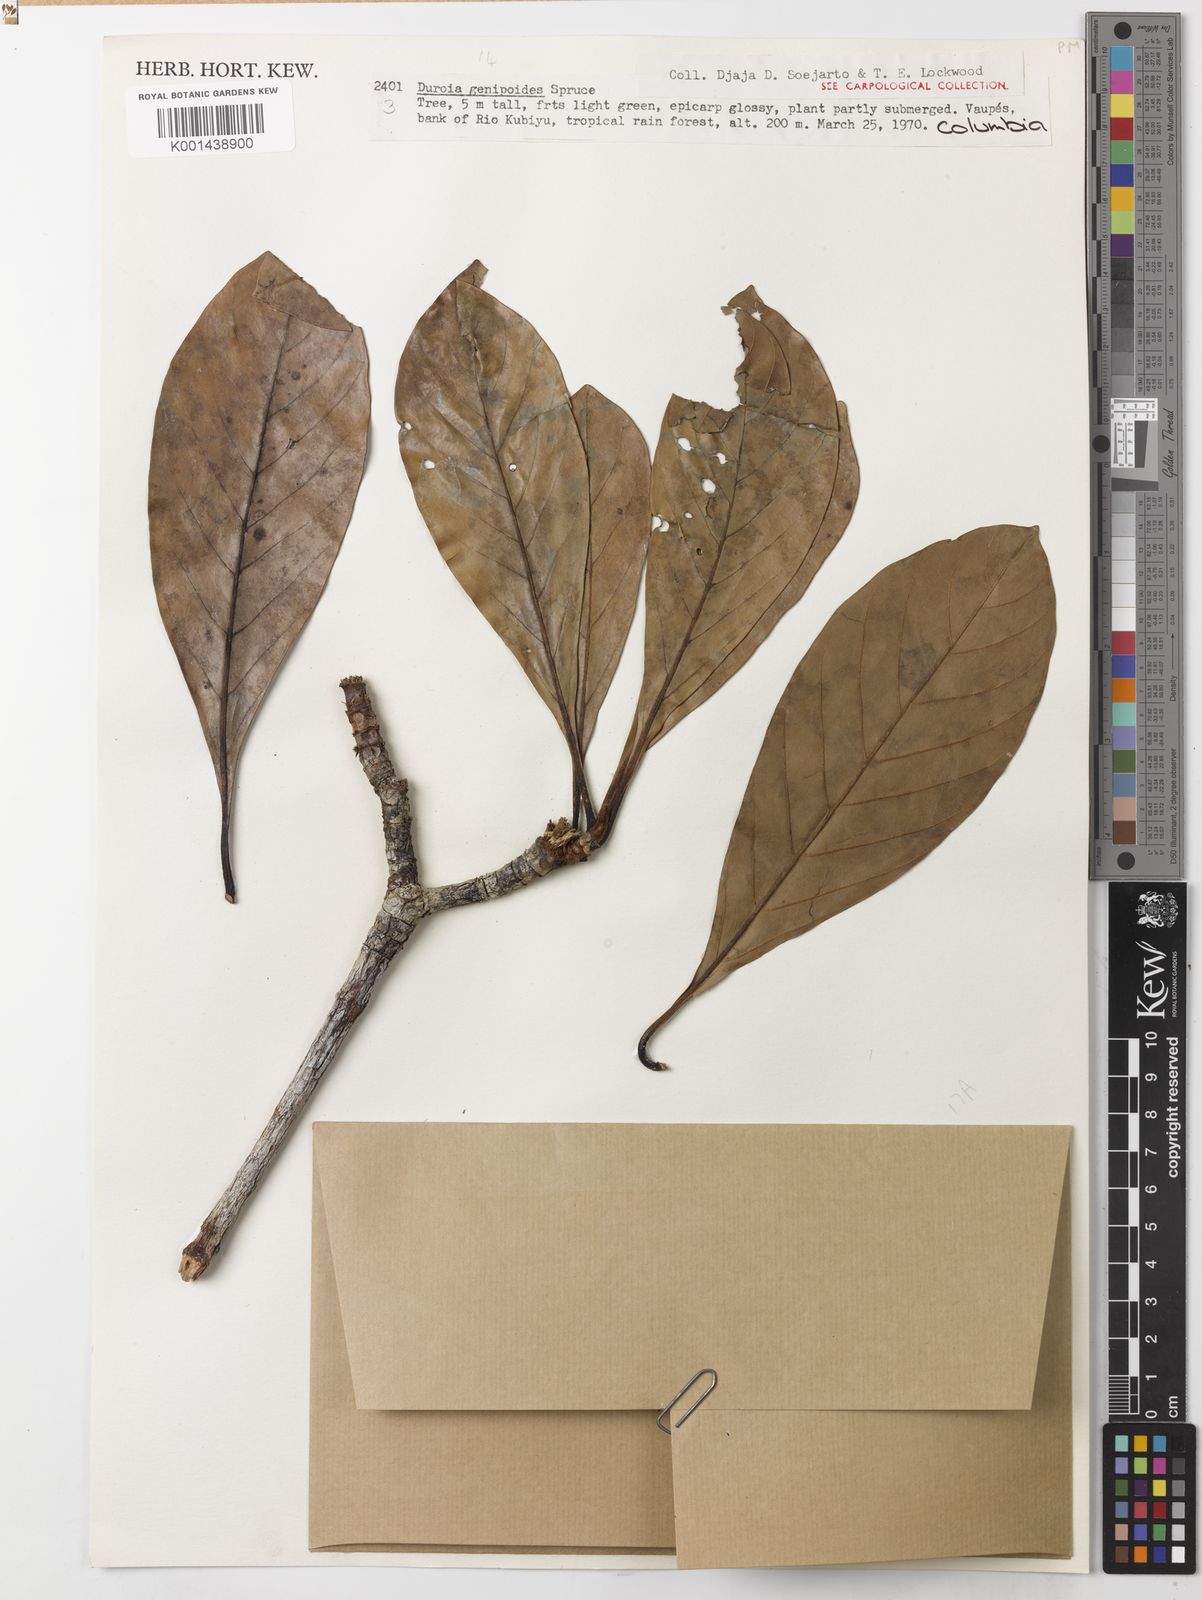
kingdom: Plantae
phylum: Tracheophyta
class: Magnoliopsida
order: Gentianales
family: Rubiaceae
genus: Duroia
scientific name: Duroia genipoides
